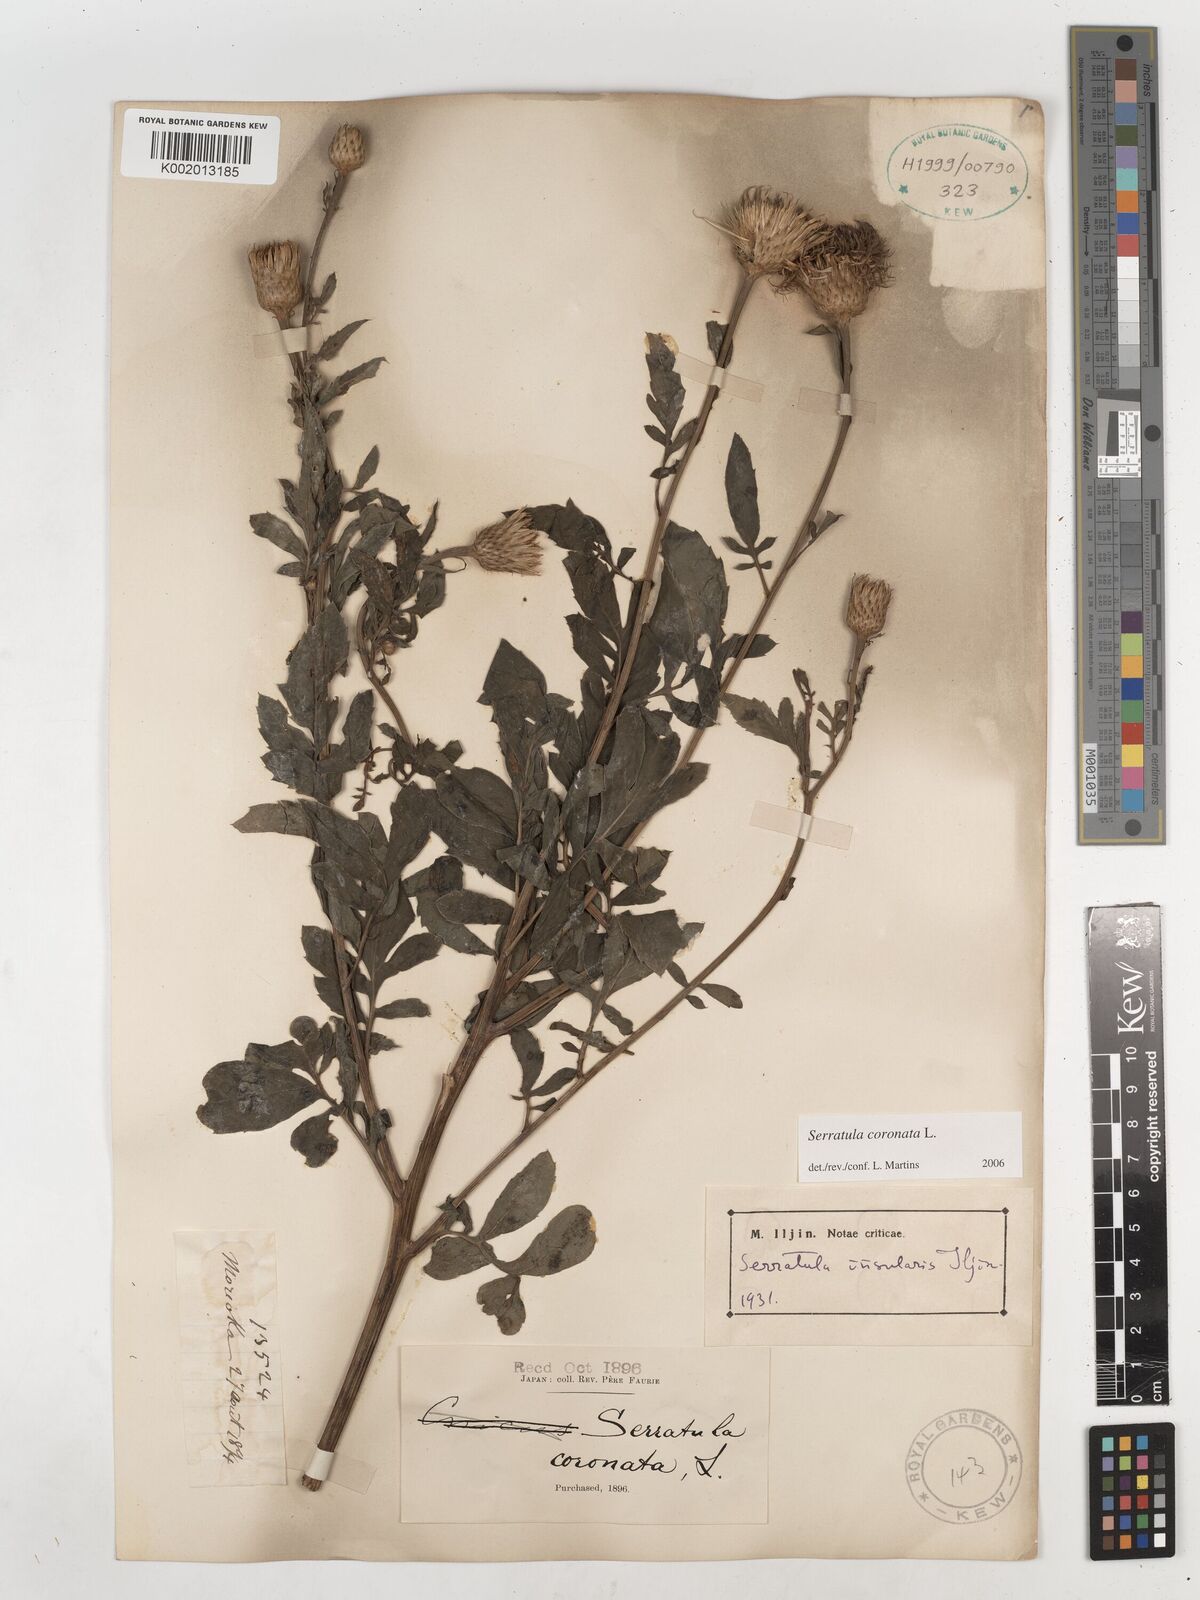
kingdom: Plantae
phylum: Tracheophyta
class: Magnoliopsida
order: Asterales
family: Asteraceae
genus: Serratula
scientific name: Serratula coronata
